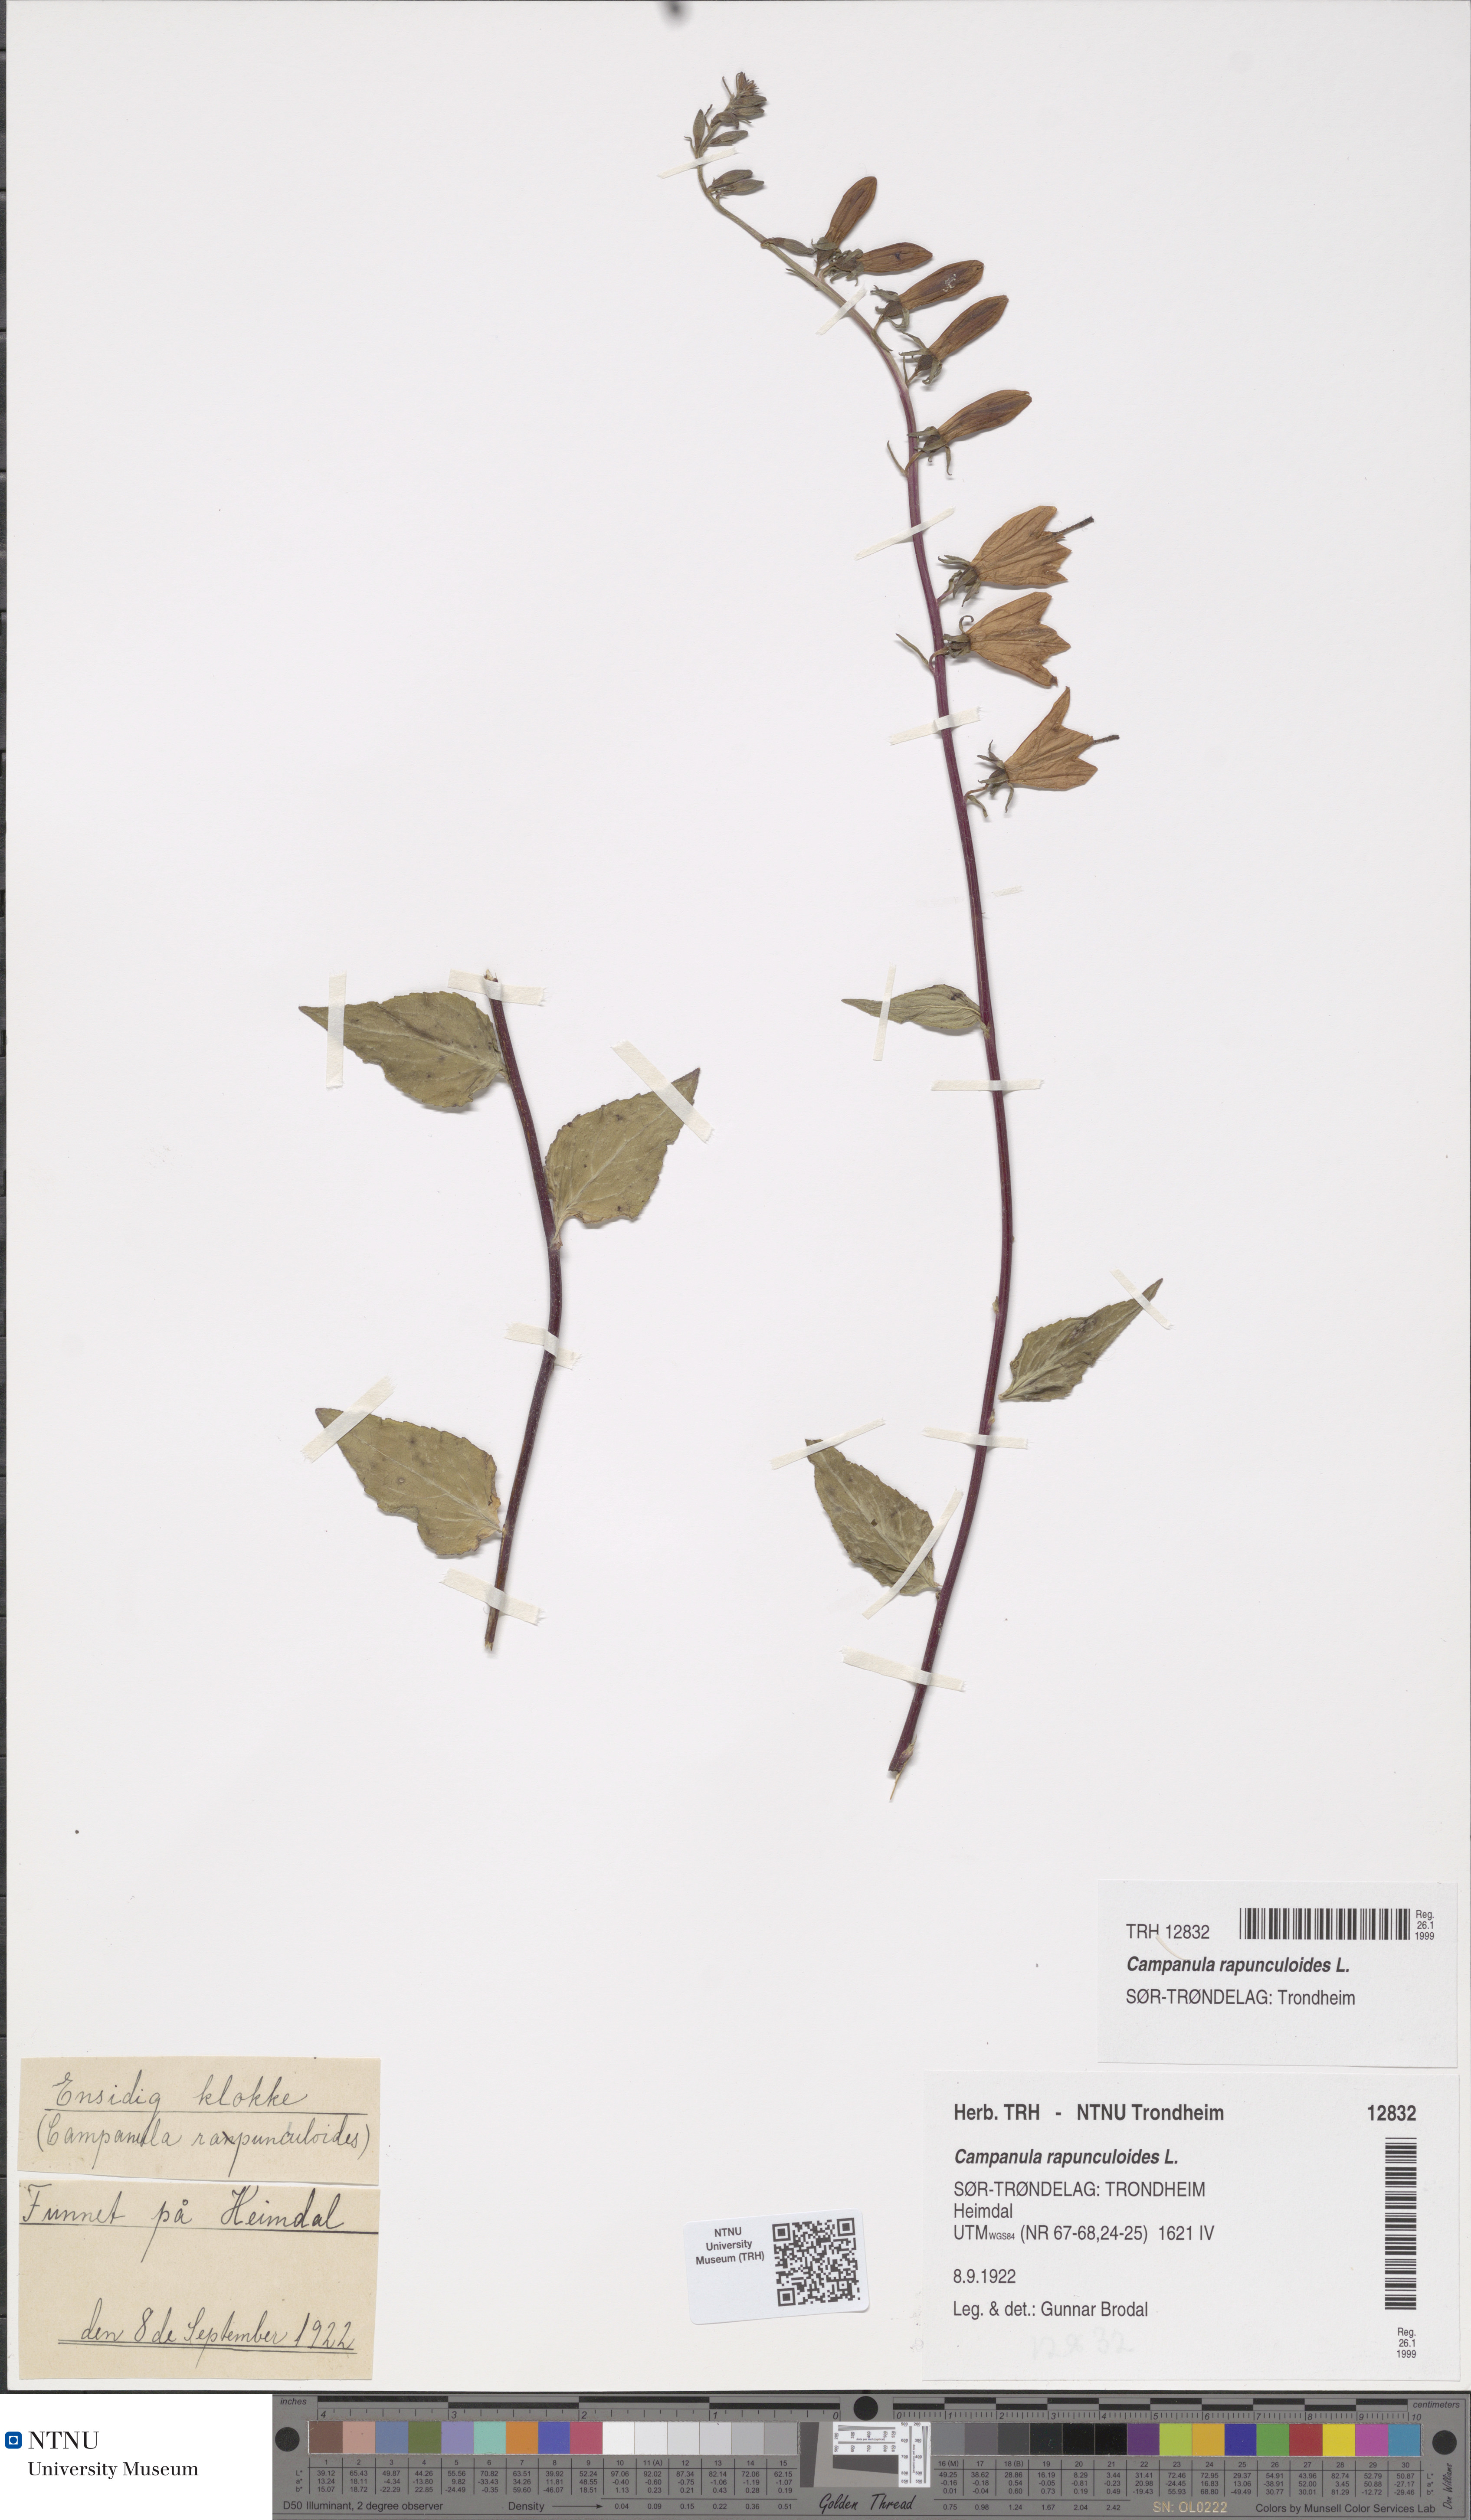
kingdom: Plantae
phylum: Tracheophyta
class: Magnoliopsida
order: Asterales
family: Campanulaceae
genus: Campanula
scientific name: Campanula rapunculoides
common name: Creeping bellflower
